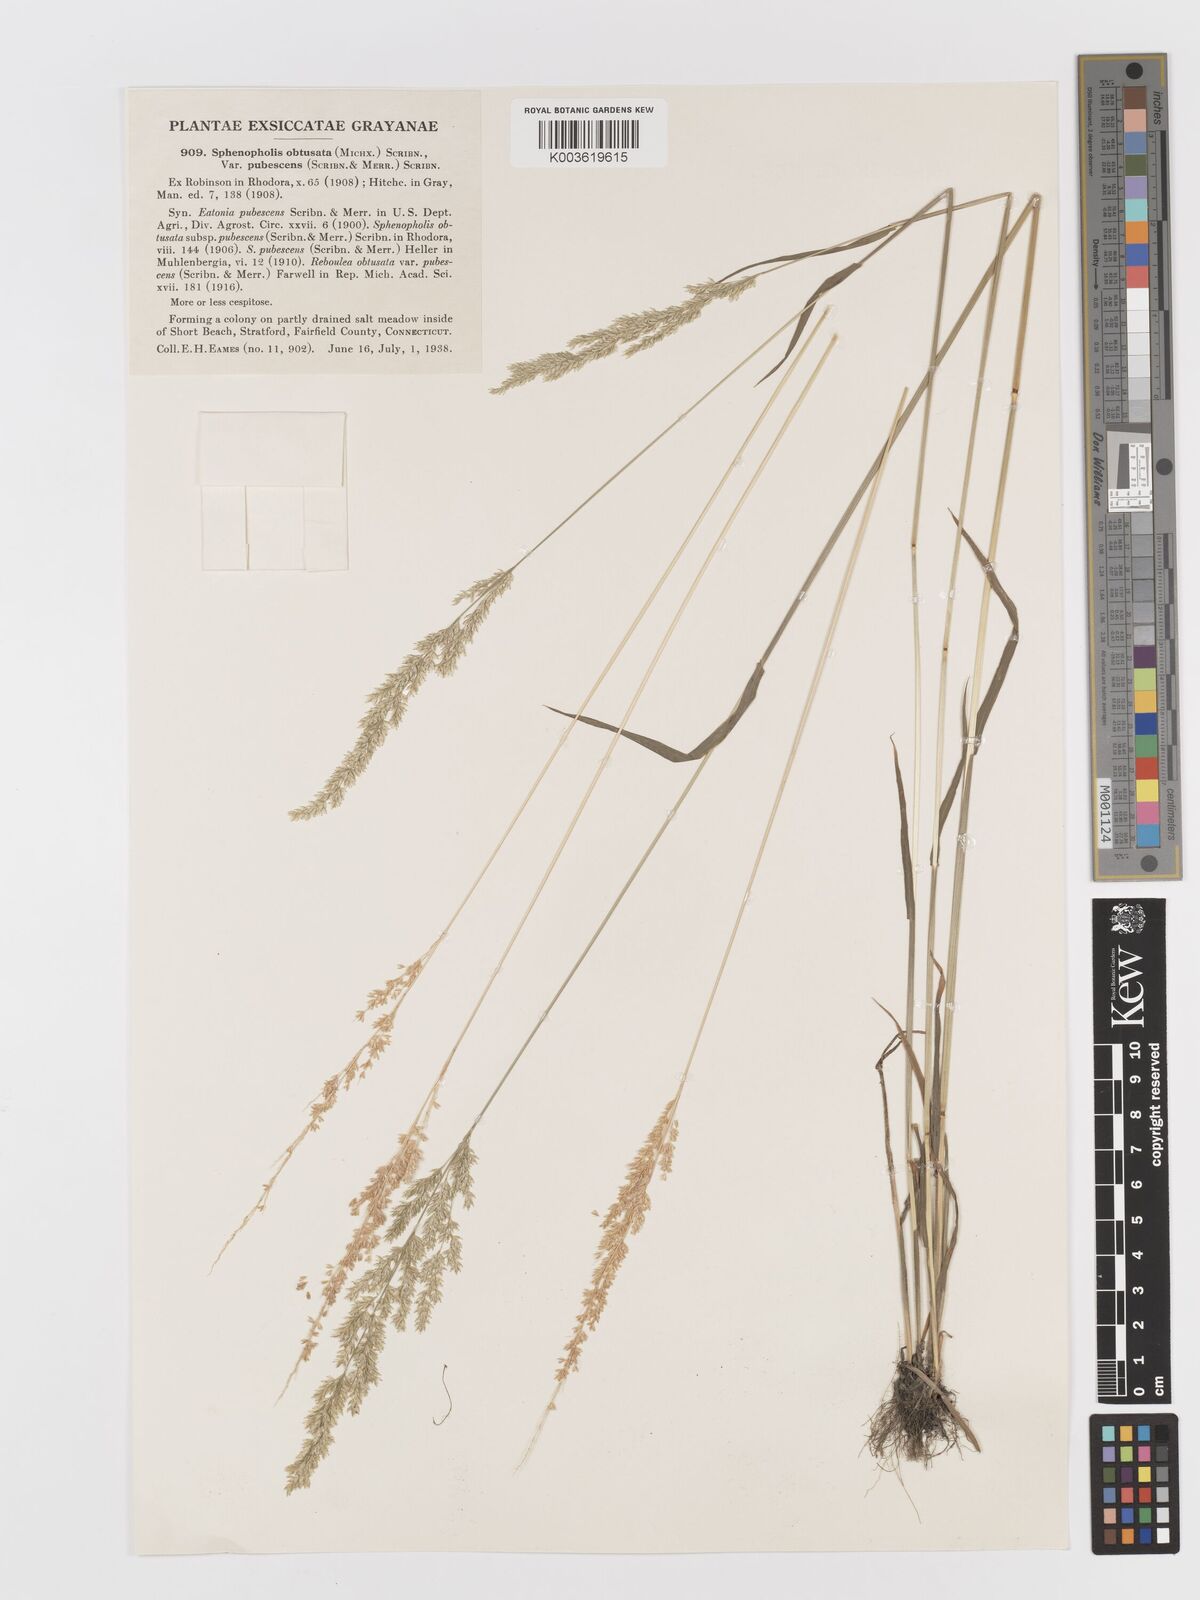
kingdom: Plantae
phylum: Tracheophyta
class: Liliopsida
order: Poales
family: Poaceae
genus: Sphenopholis
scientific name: Sphenopholis obtusata
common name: Prairie grass
